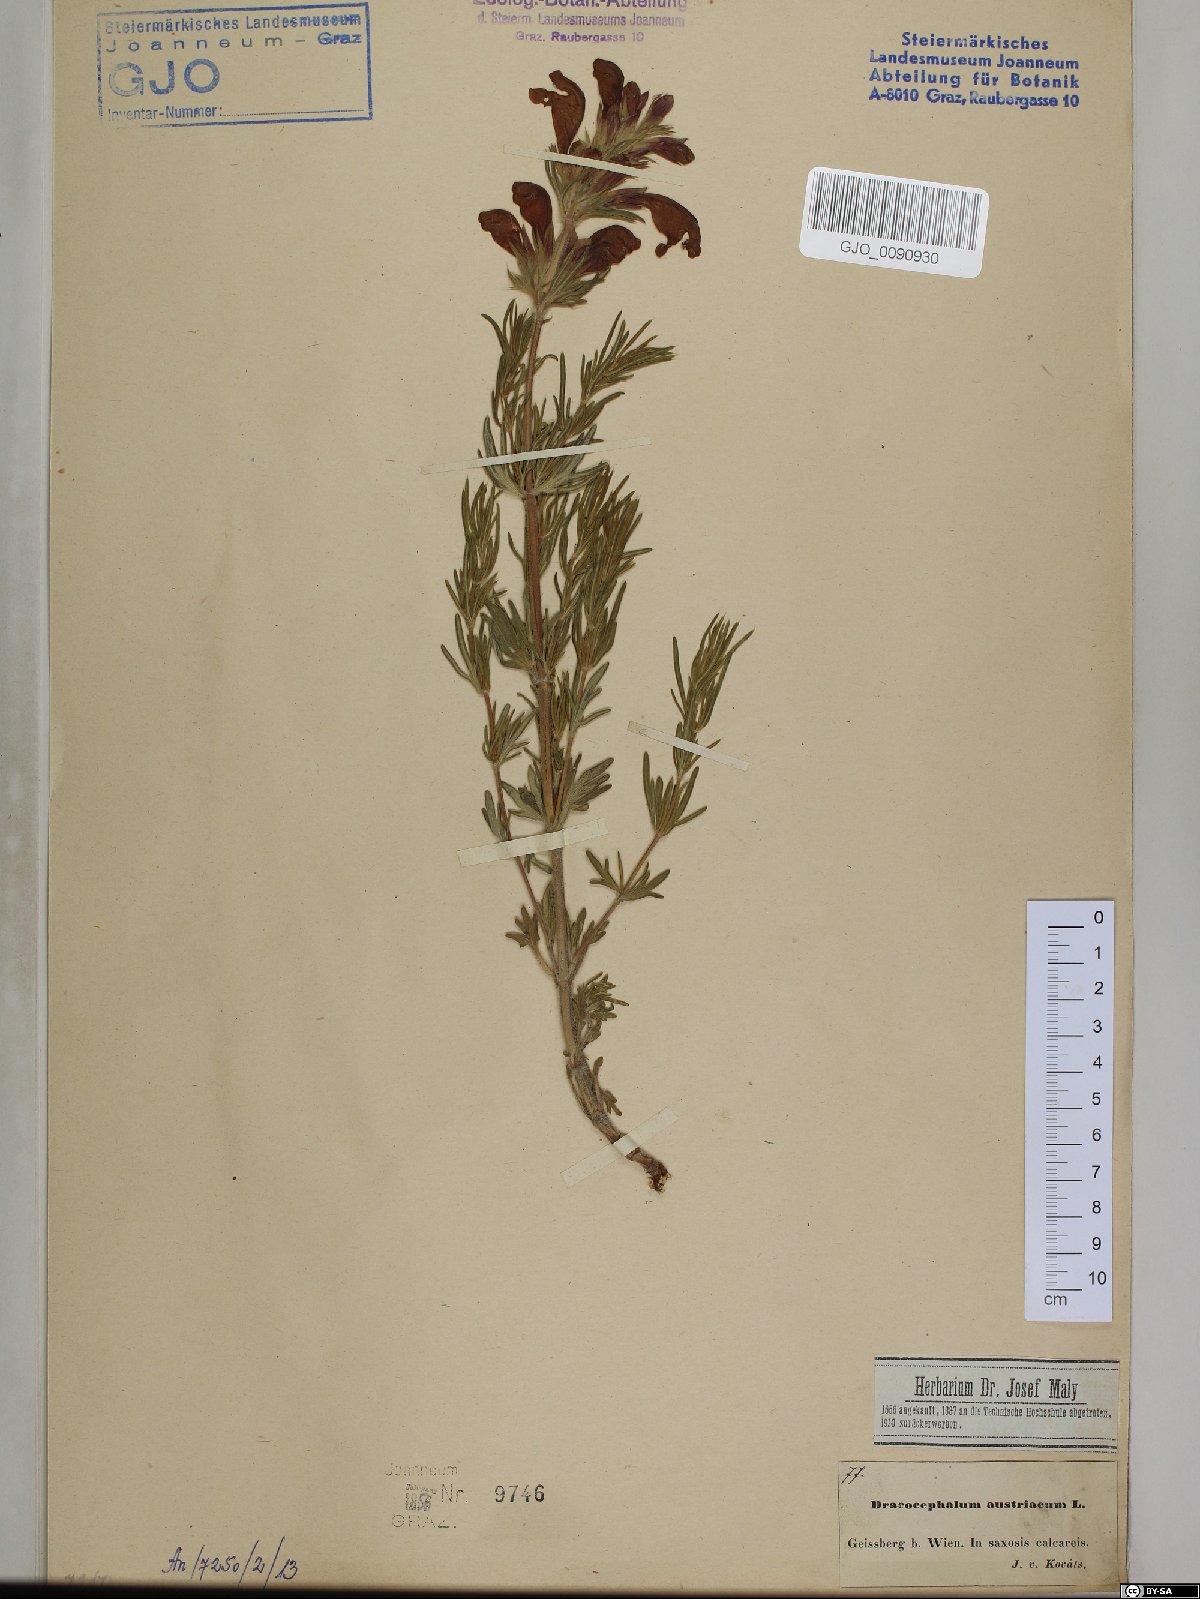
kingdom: Plantae
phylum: Tracheophyta
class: Magnoliopsida
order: Lamiales
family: Lamiaceae
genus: Dracocephalum
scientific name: Dracocephalum austriacum
